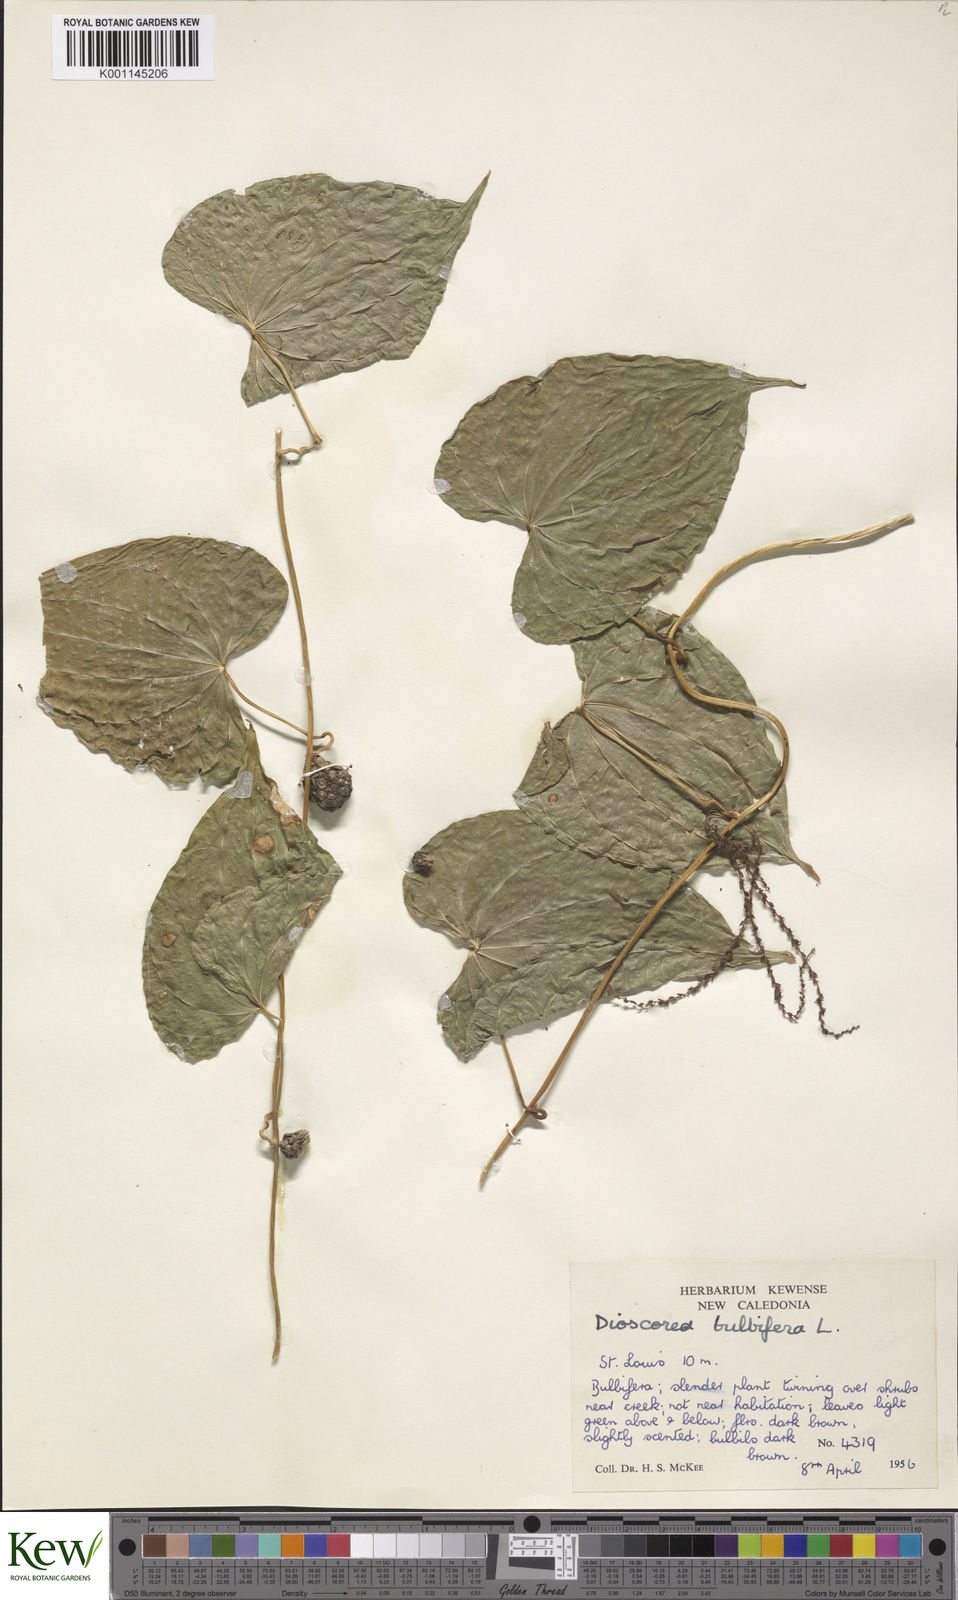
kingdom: Plantae
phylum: Tracheophyta
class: Liliopsida
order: Dioscoreales
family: Dioscoreaceae
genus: Dioscorea
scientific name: Dioscorea bulbifera
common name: Air yam
